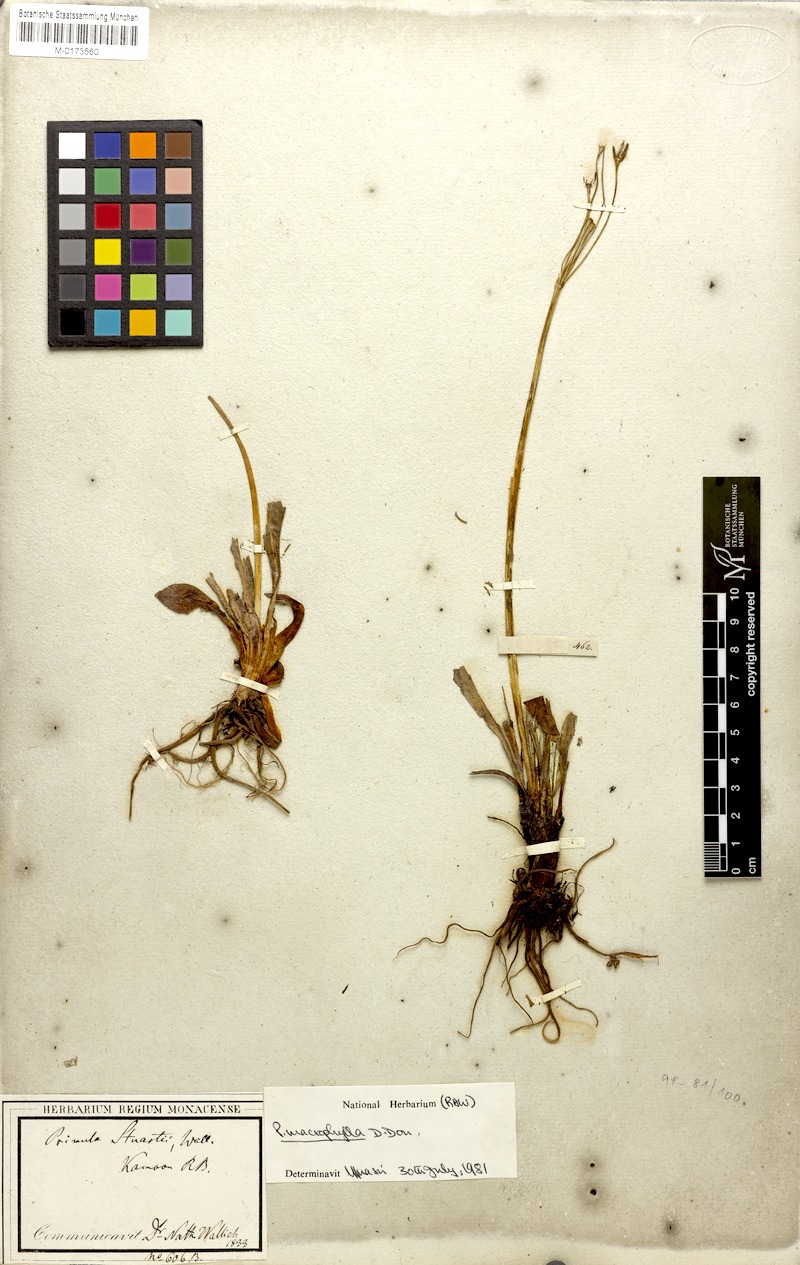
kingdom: Plantae
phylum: Tracheophyta
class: Magnoliopsida
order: Ericales
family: Primulaceae
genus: Primula
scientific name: Primula stuartii
